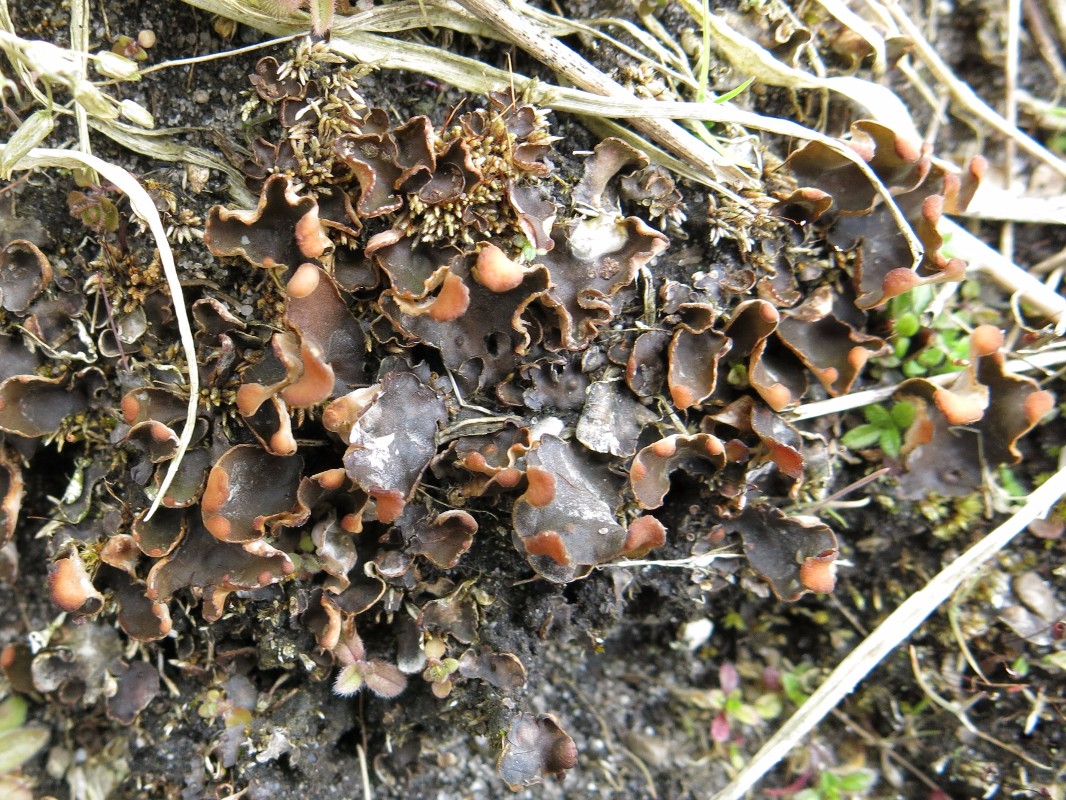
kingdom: Fungi
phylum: Ascomycota
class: Lecanoromycetes
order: Peltigerales
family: Peltigeraceae
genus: Peltigera
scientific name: Peltigera didactyla
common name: liden skjoldlav
